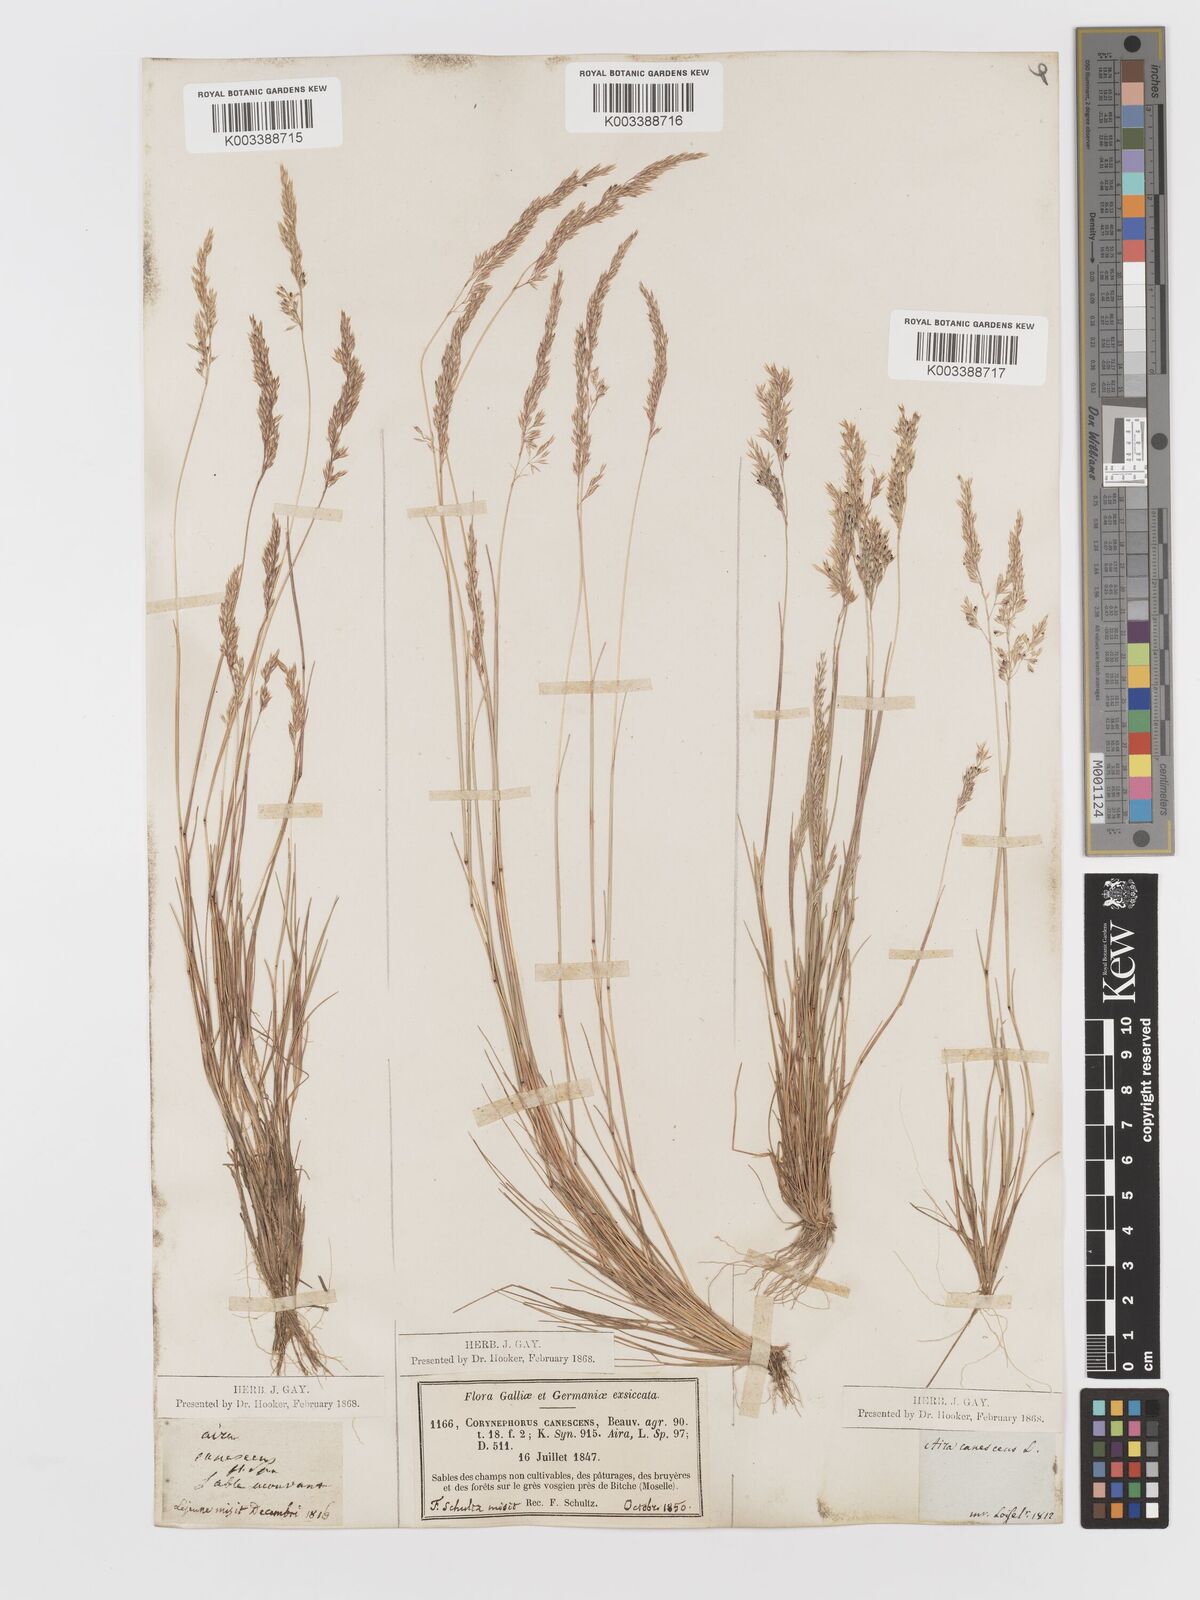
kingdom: Plantae
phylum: Tracheophyta
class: Liliopsida
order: Poales
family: Poaceae
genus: Corynephorus
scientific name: Corynephorus canescens
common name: Grey hair-grass
